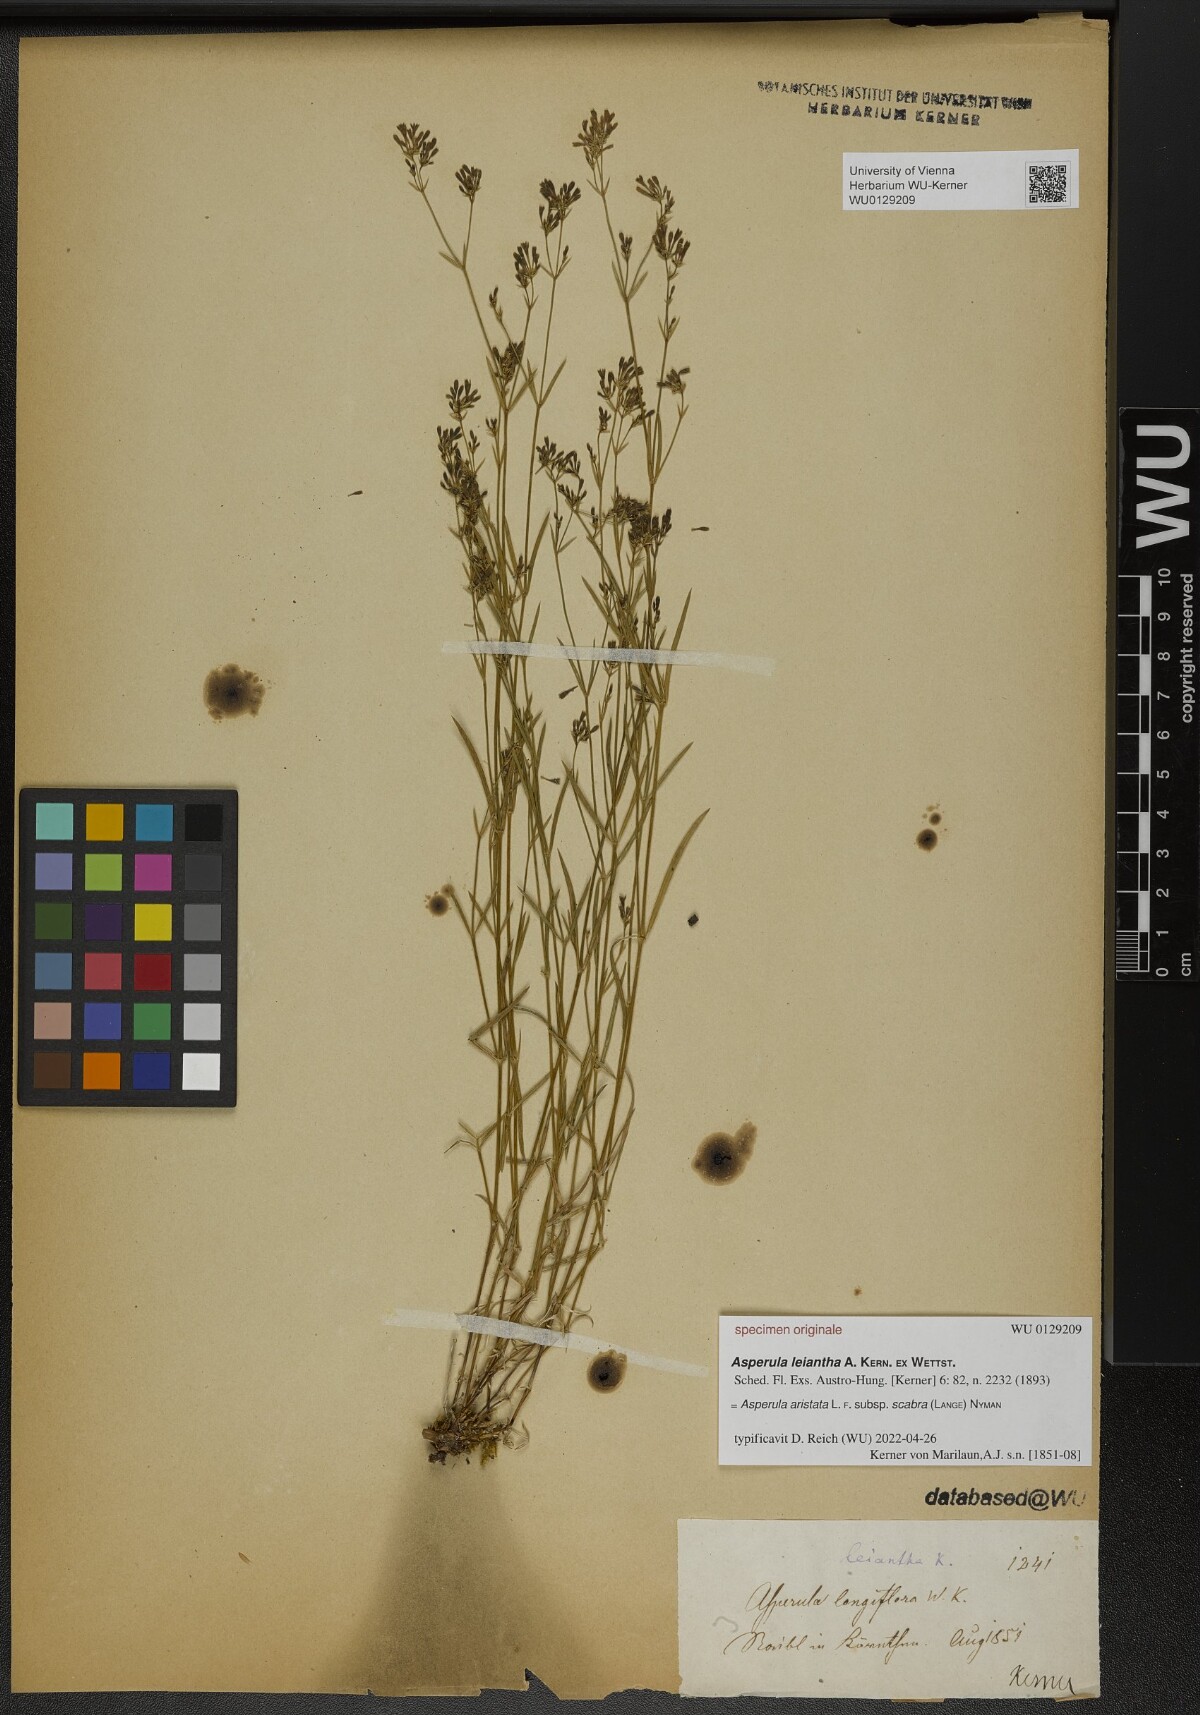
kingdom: Plantae
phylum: Tracheophyta
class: Magnoliopsida
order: Gentianales
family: Rubiaceae
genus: Asperula
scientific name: Asperula
